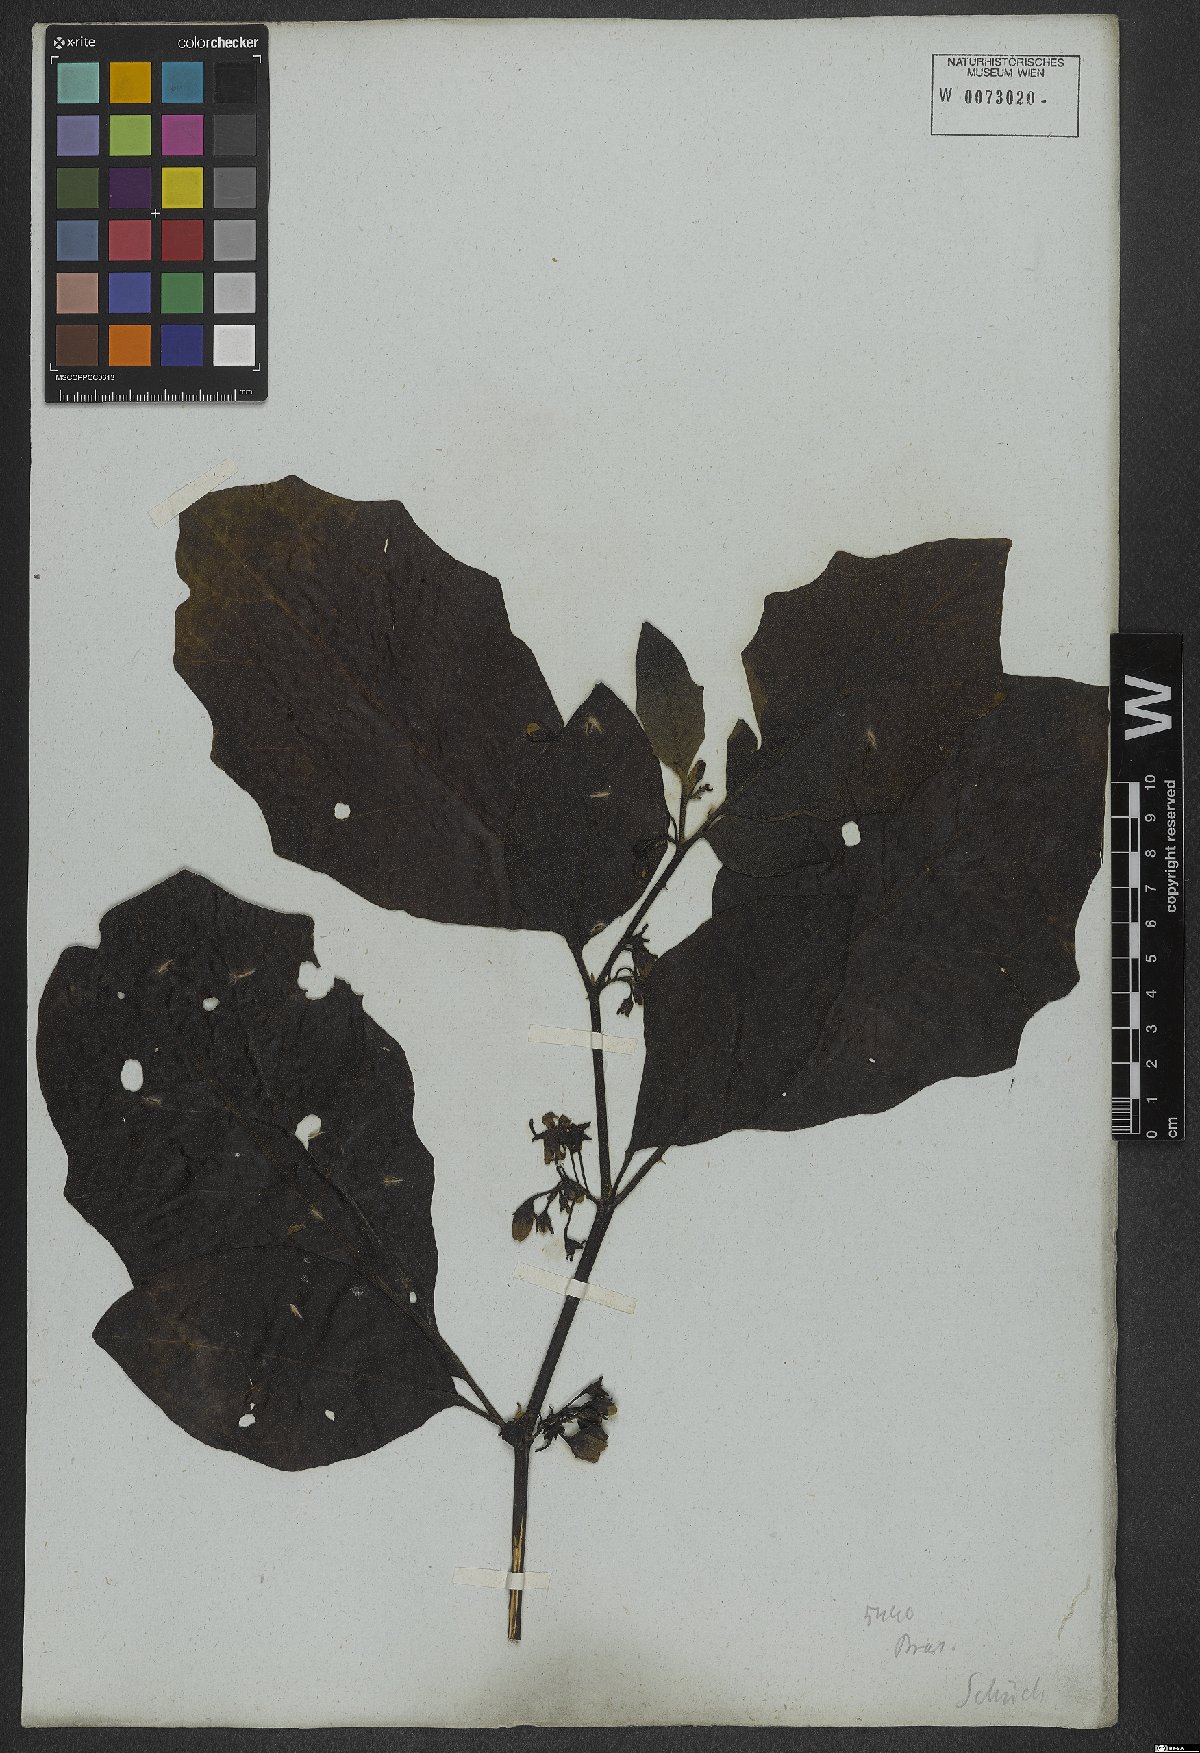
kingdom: Plantae
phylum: Tracheophyta
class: Magnoliopsida
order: Solanales
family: Solanaceae
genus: Solanum
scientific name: Solanum asterophorum
